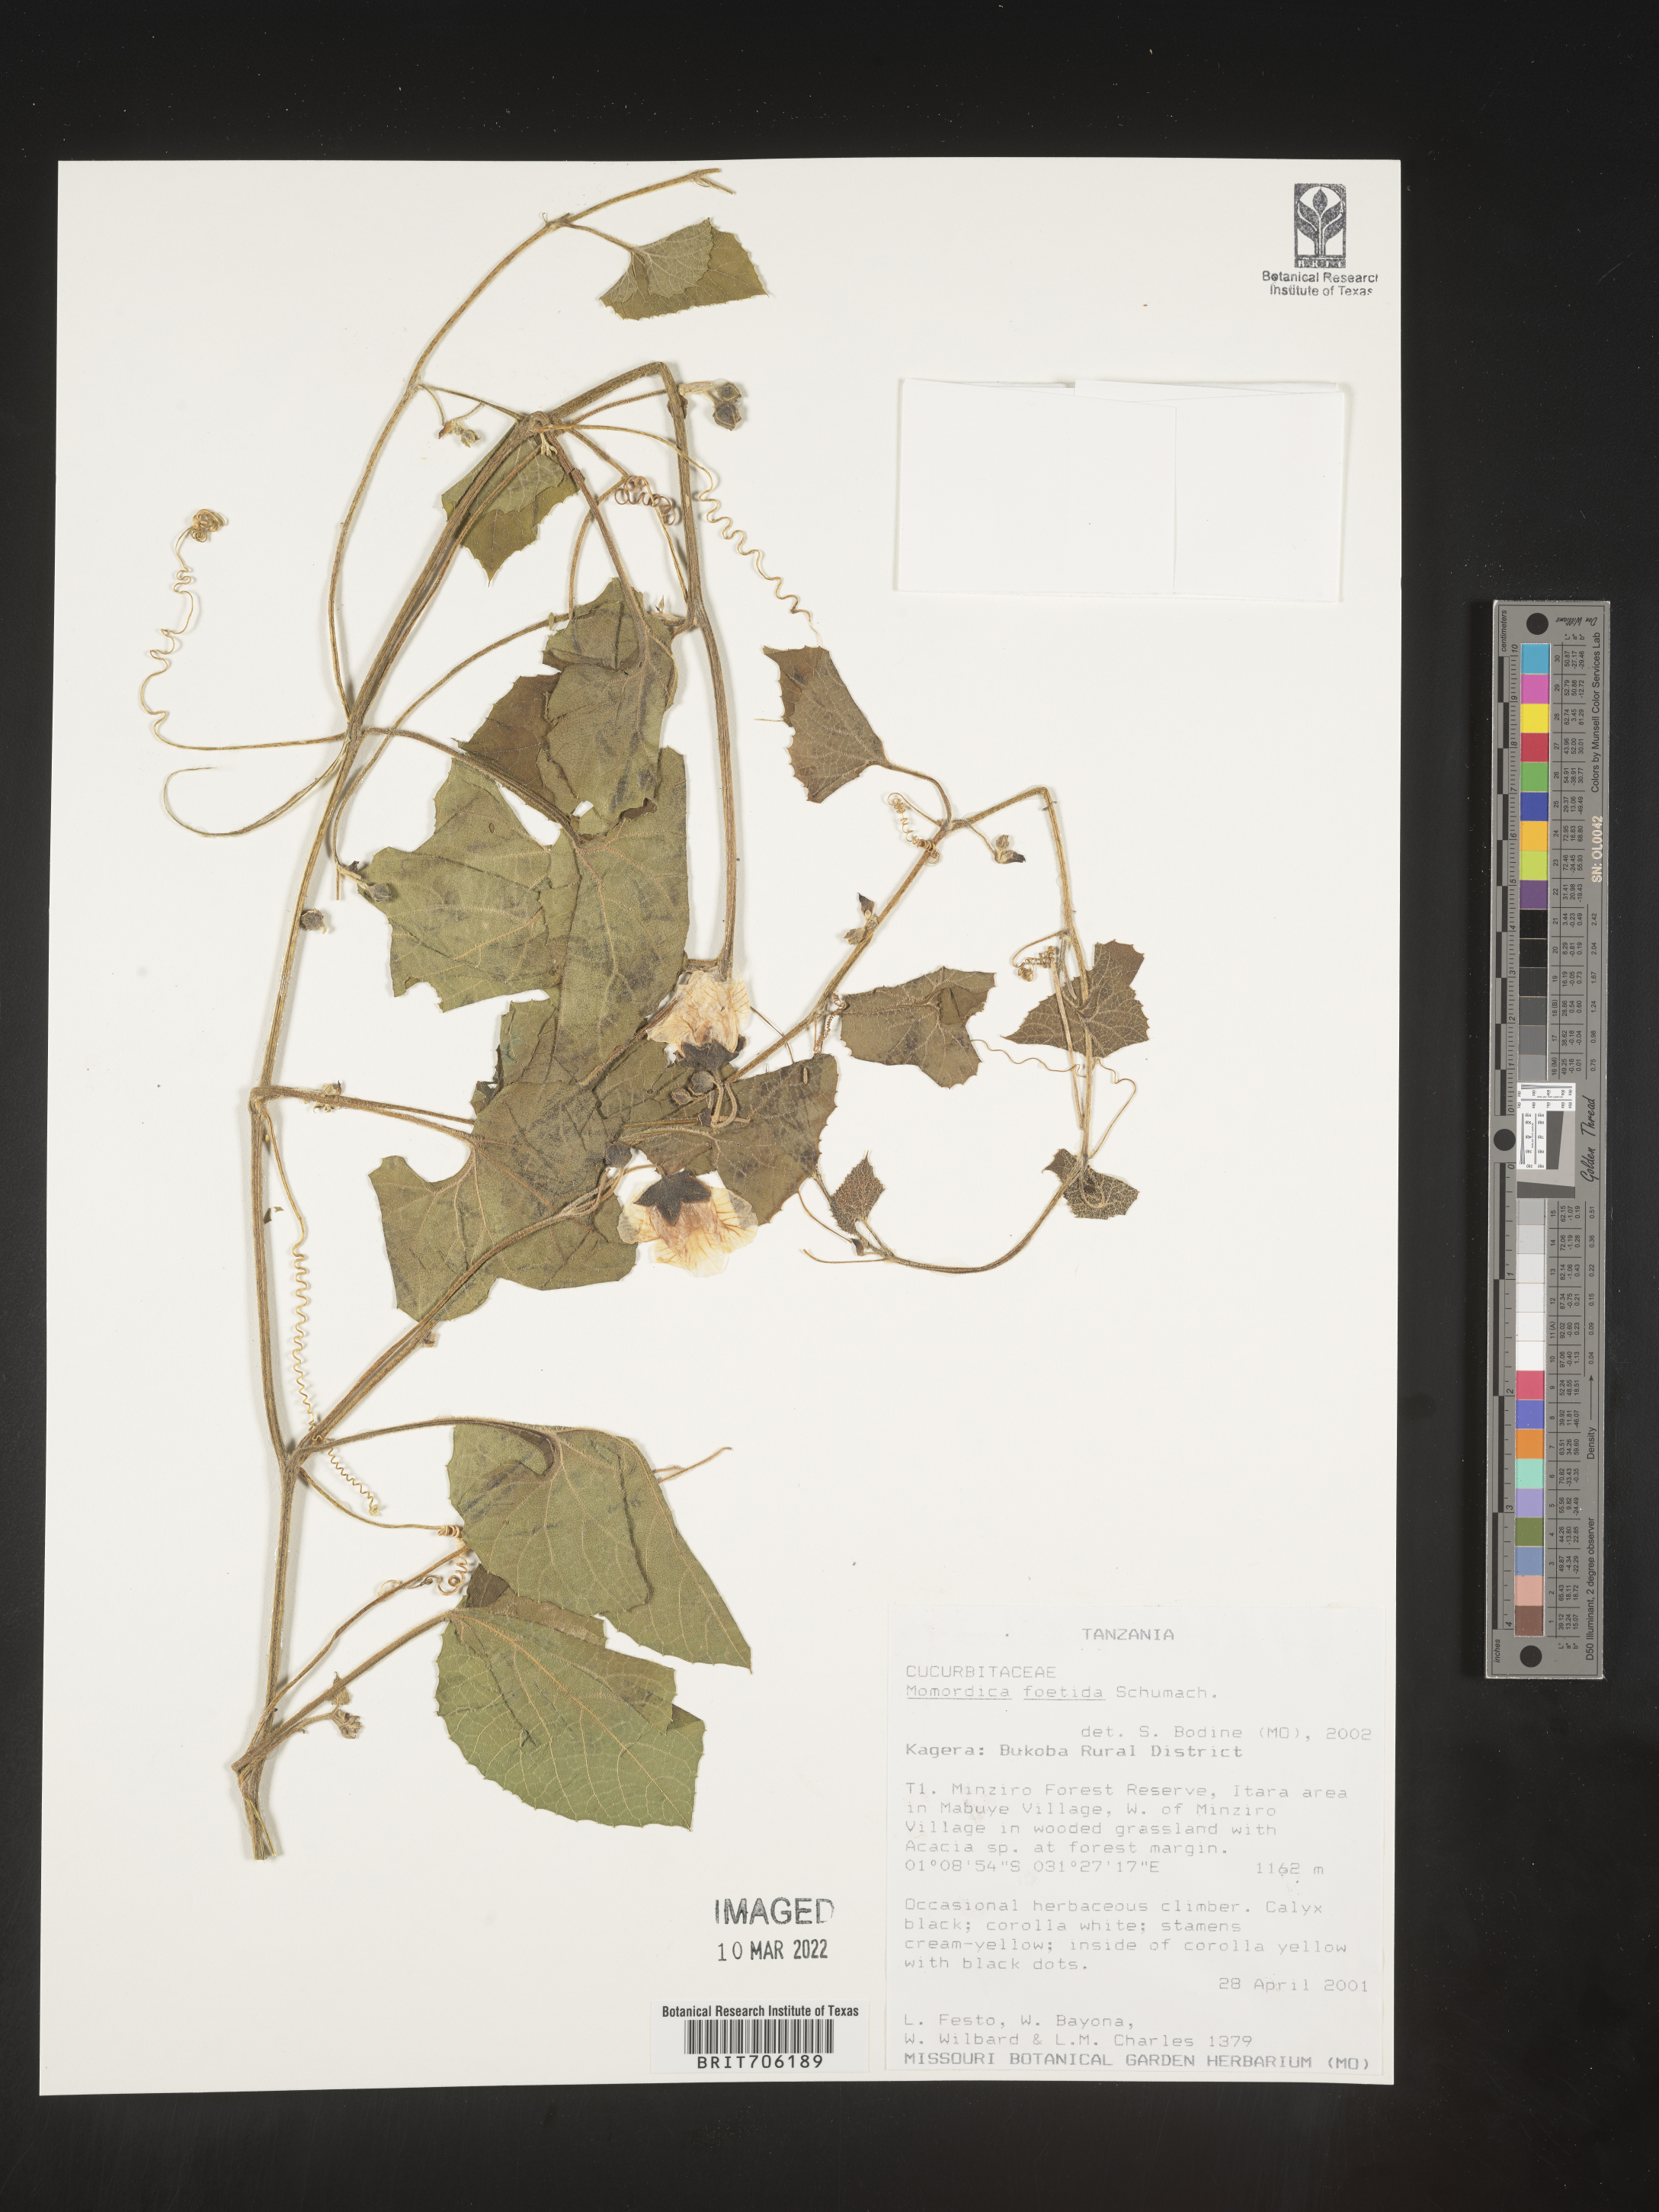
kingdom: Plantae
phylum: Tracheophyta
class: Magnoliopsida
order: Cucurbitales
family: Cucurbitaceae
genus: Momordica
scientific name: Momordica
